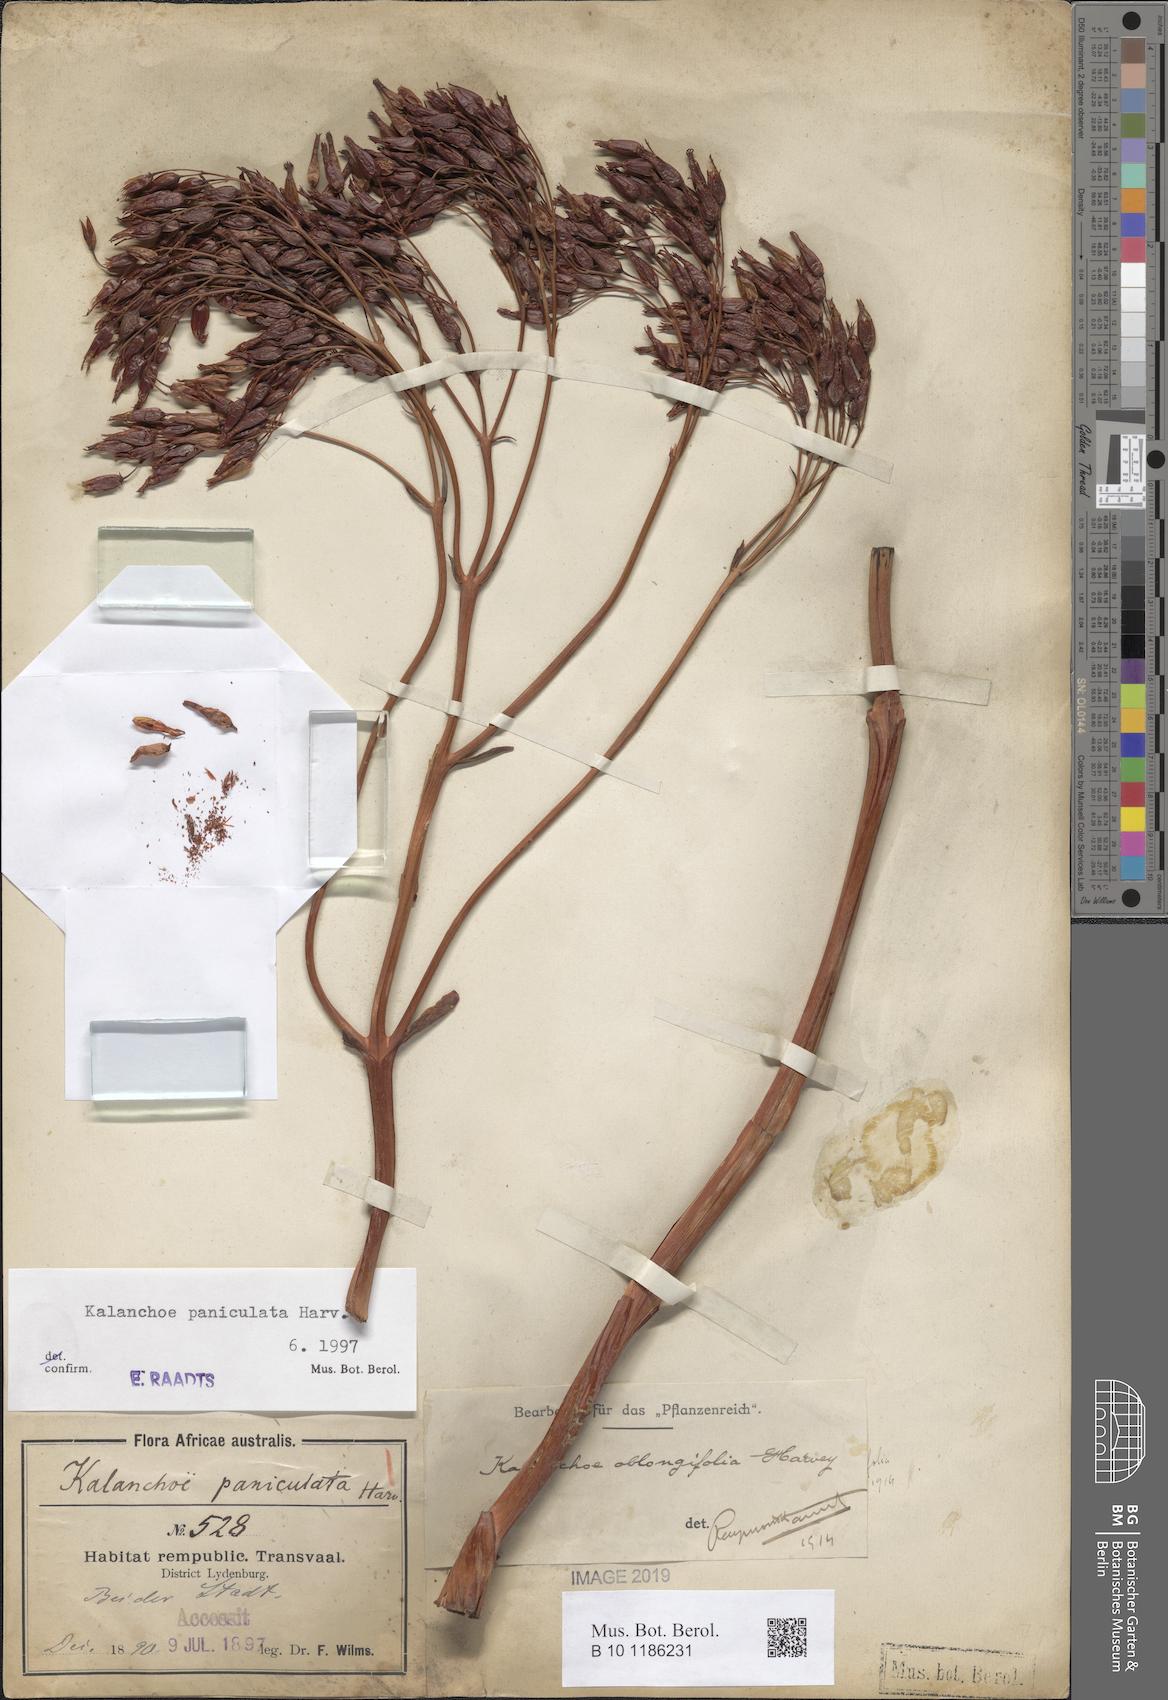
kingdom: Plantae
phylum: Tracheophyta
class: Magnoliopsida
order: Saxifragales
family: Crassulaceae
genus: Kalanchoe
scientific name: Kalanchoe paniculata
